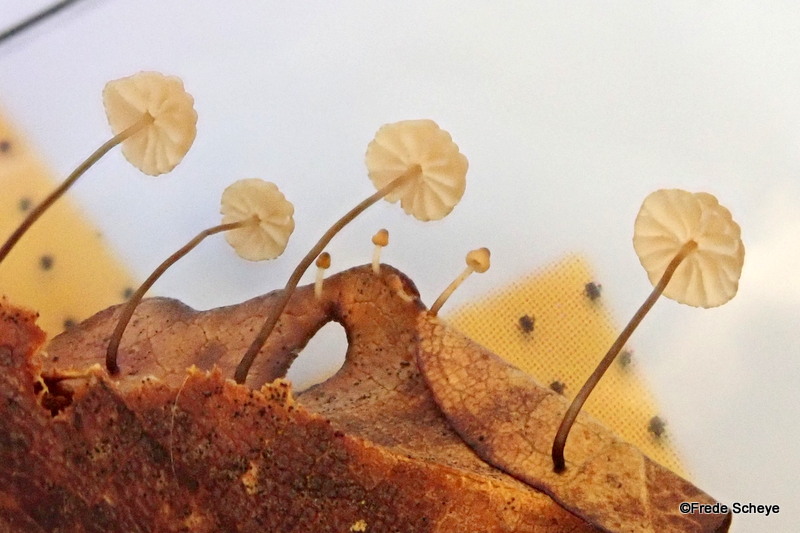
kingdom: Fungi
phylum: Basidiomycota
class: Agaricomycetes
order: Agaricales
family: Marasmiaceae
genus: Marasmius
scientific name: Marasmius bulliardii
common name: furet bruskhat
